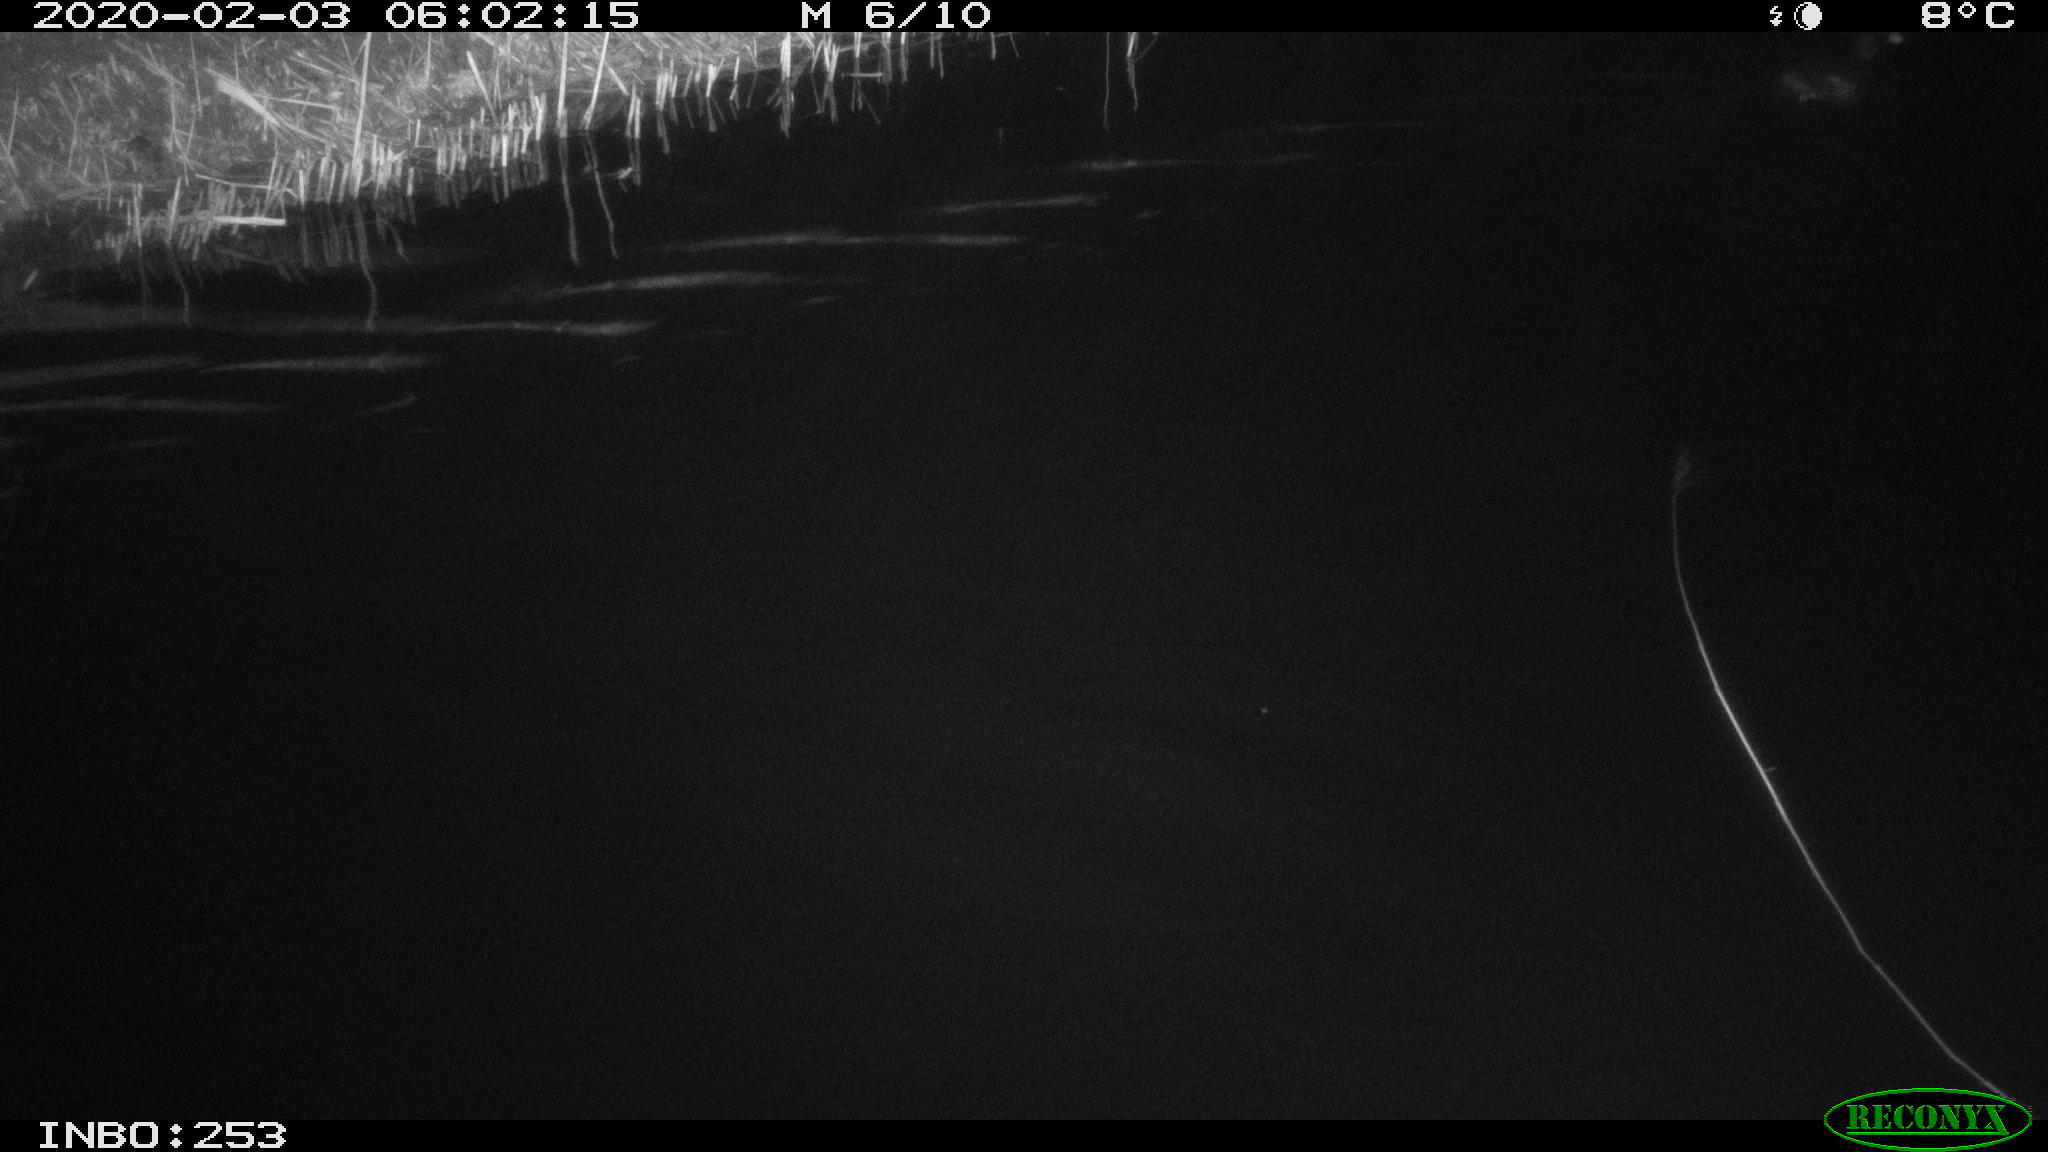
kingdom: Animalia
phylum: Chordata
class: Aves
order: Gruiformes
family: Rallidae
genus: Fulica
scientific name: Fulica atra
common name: Eurasian coot
